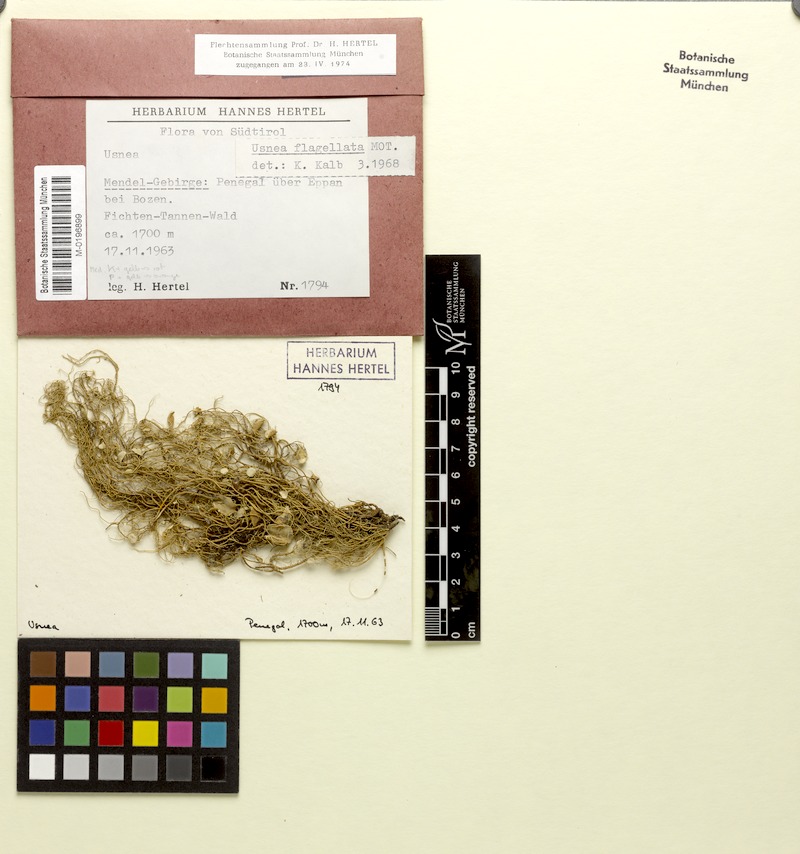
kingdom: Fungi
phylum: Ascomycota
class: Lecanoromycetes
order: Lecanorales
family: Parmeliaceae
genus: Usnea
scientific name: Usnea dasopoga
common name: Fishbone beard lichen
